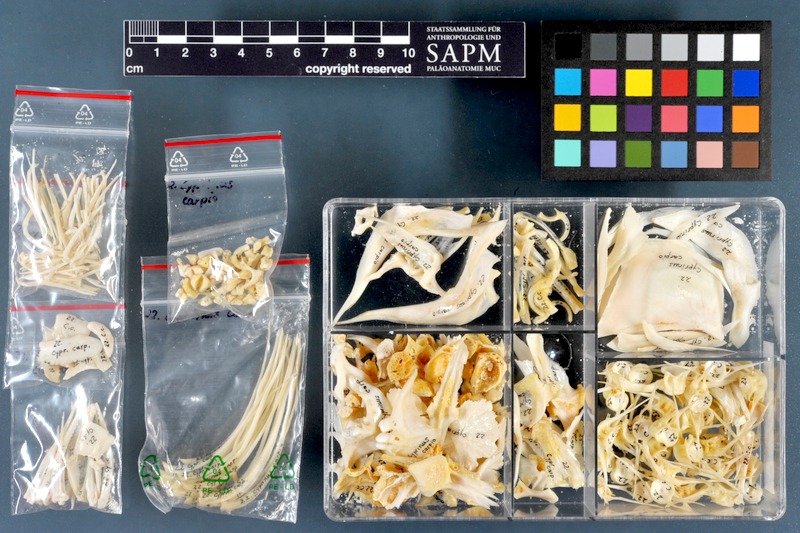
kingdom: Animalia
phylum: Chordata
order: Cypriniformes
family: Cyprinidae
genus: Cyprinus
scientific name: Cyprinus carpio
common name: Common carp
